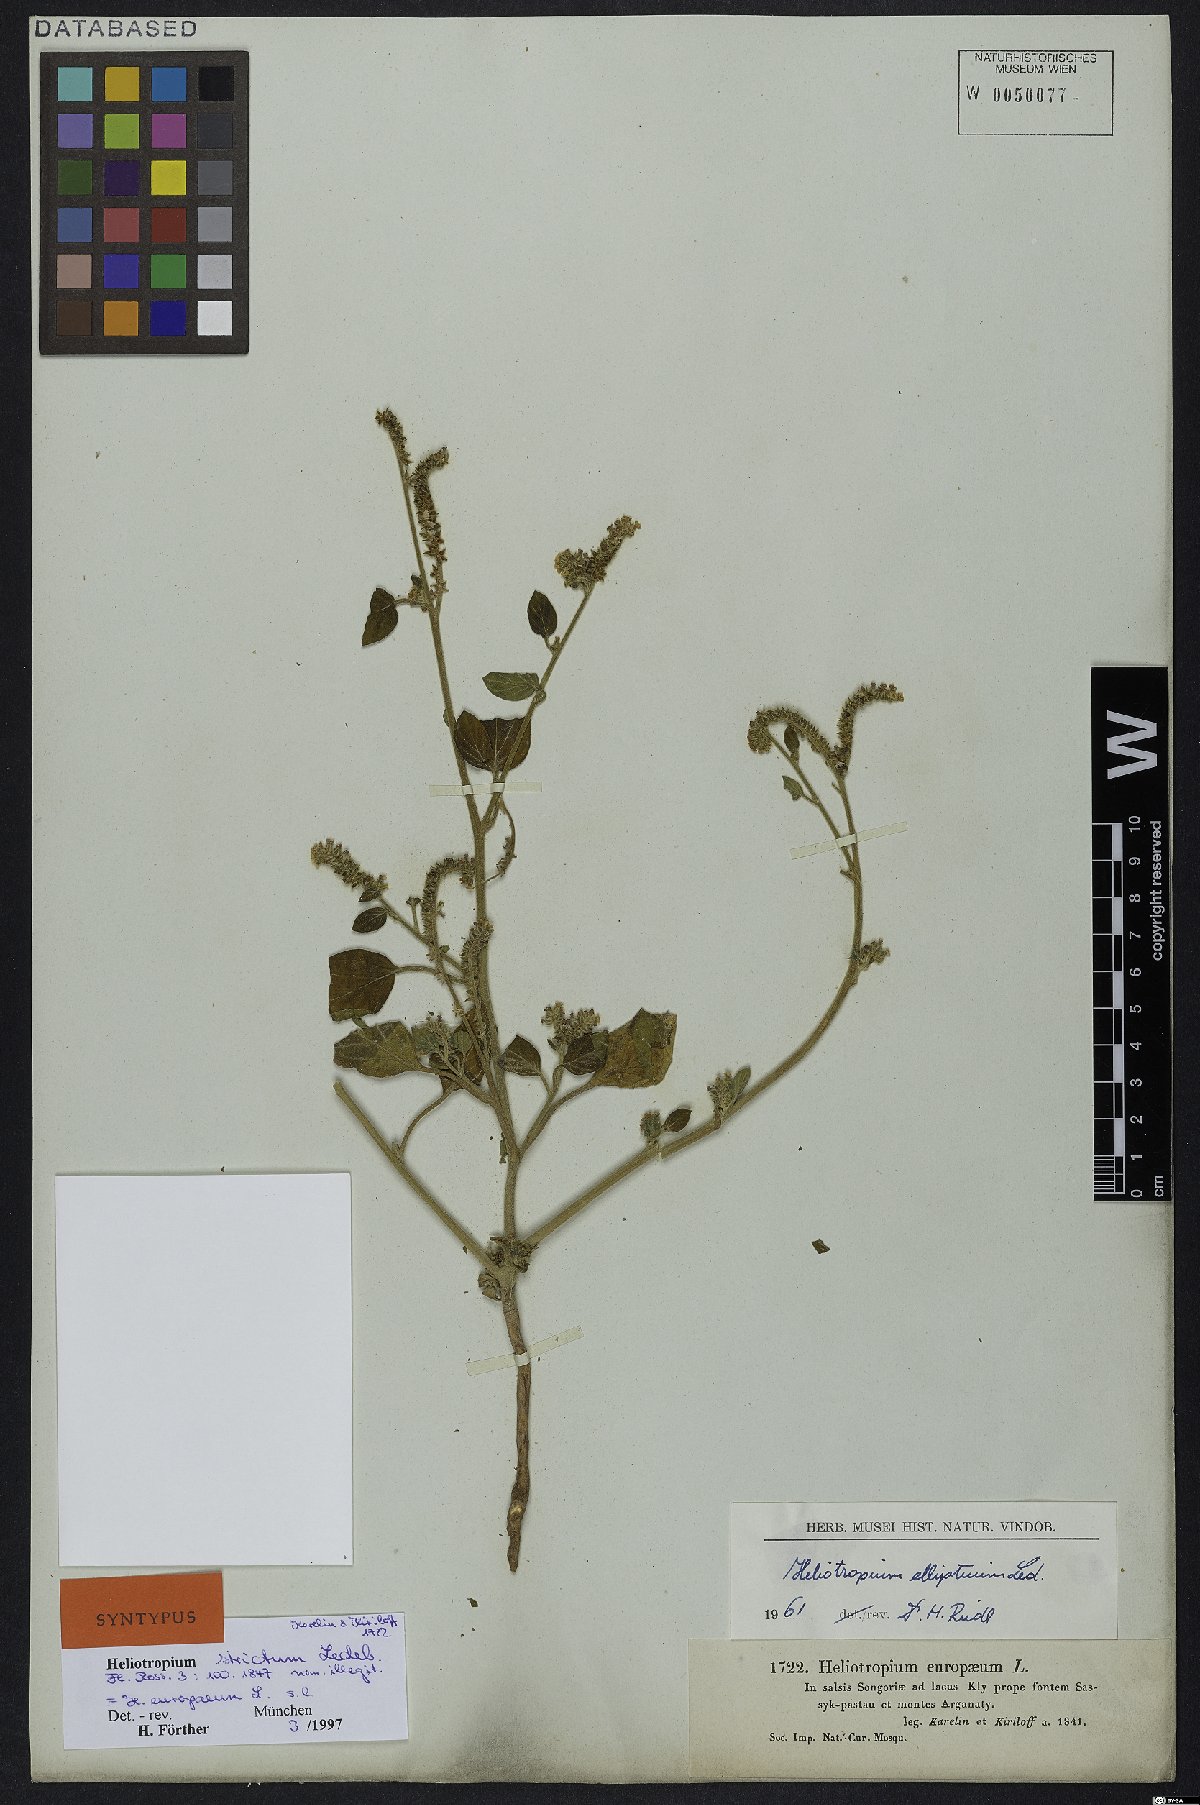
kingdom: Plantae
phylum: Tracheophyta
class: Magnoliopsida
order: Boraginales
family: Heliotropiaceae
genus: Heliotropium
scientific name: Heliotropium europaeum
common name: European heliotrope
